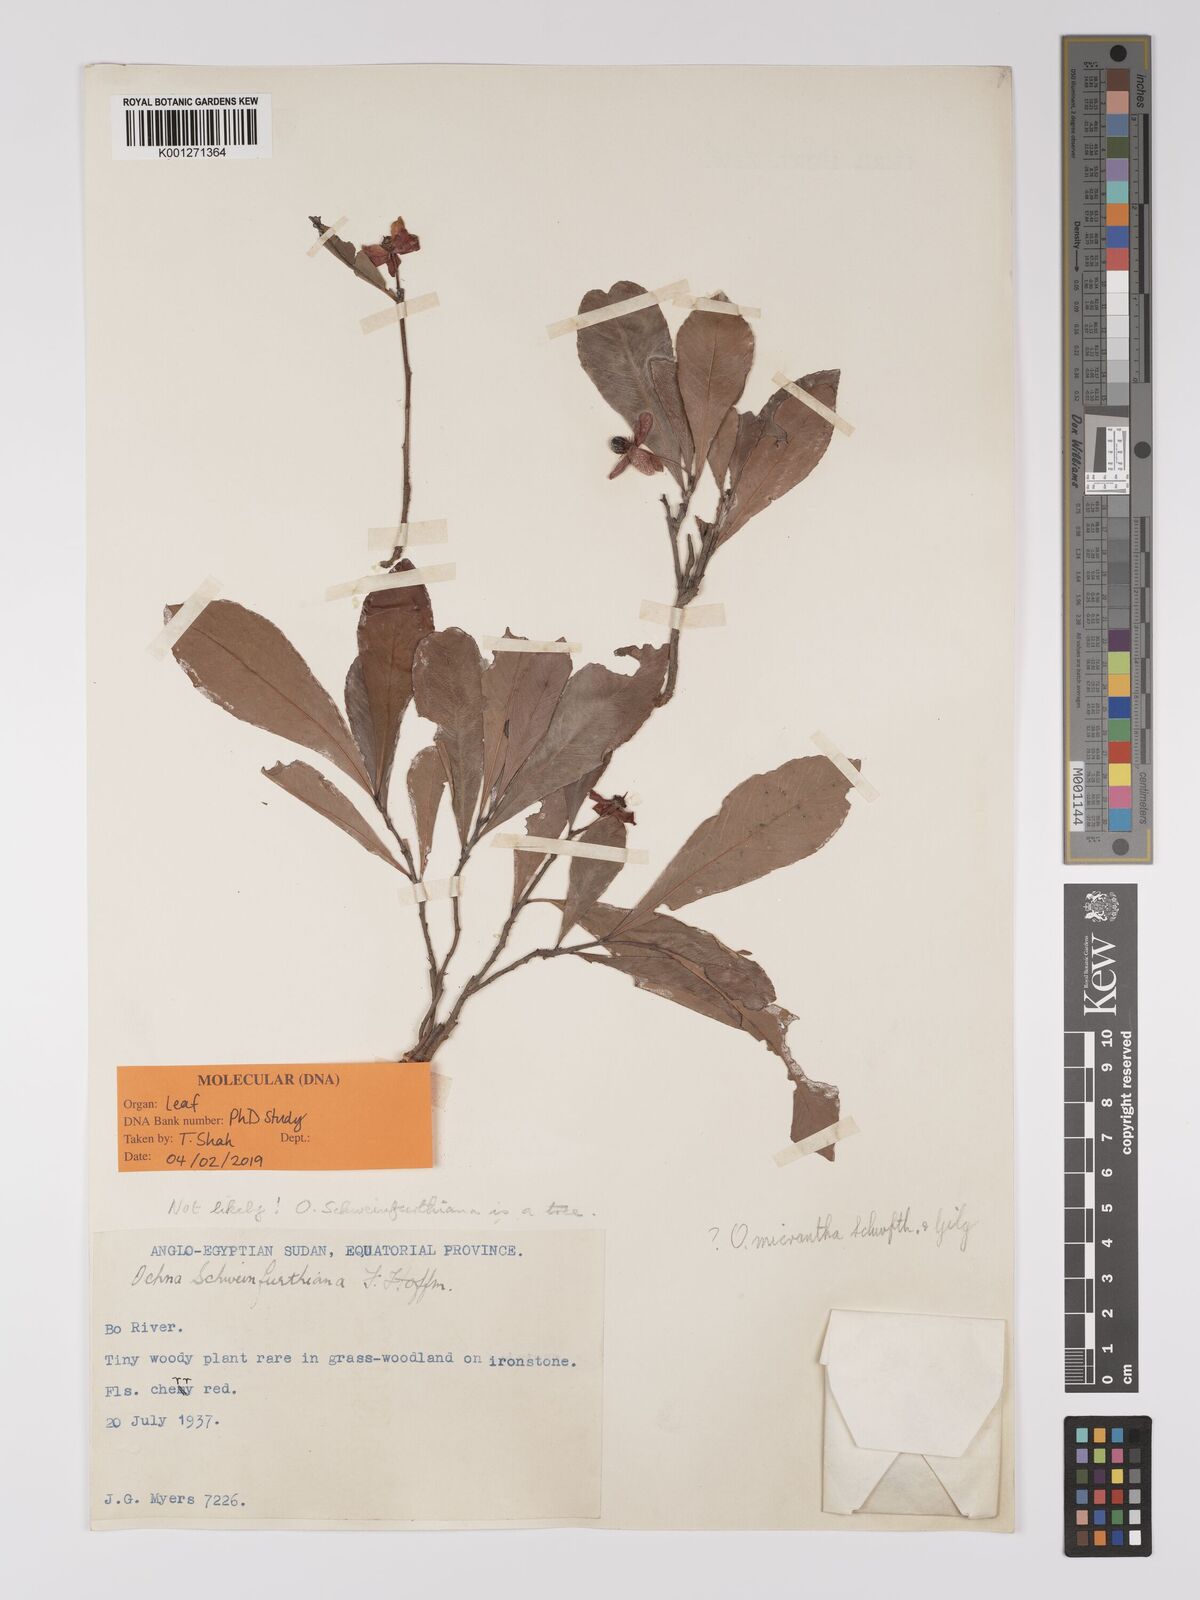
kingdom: Plantae
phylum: Tracheophyta
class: Magnoliopsida
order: Malpighiales
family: Ochnaceae
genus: Ochna
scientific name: Ochna micrantha
